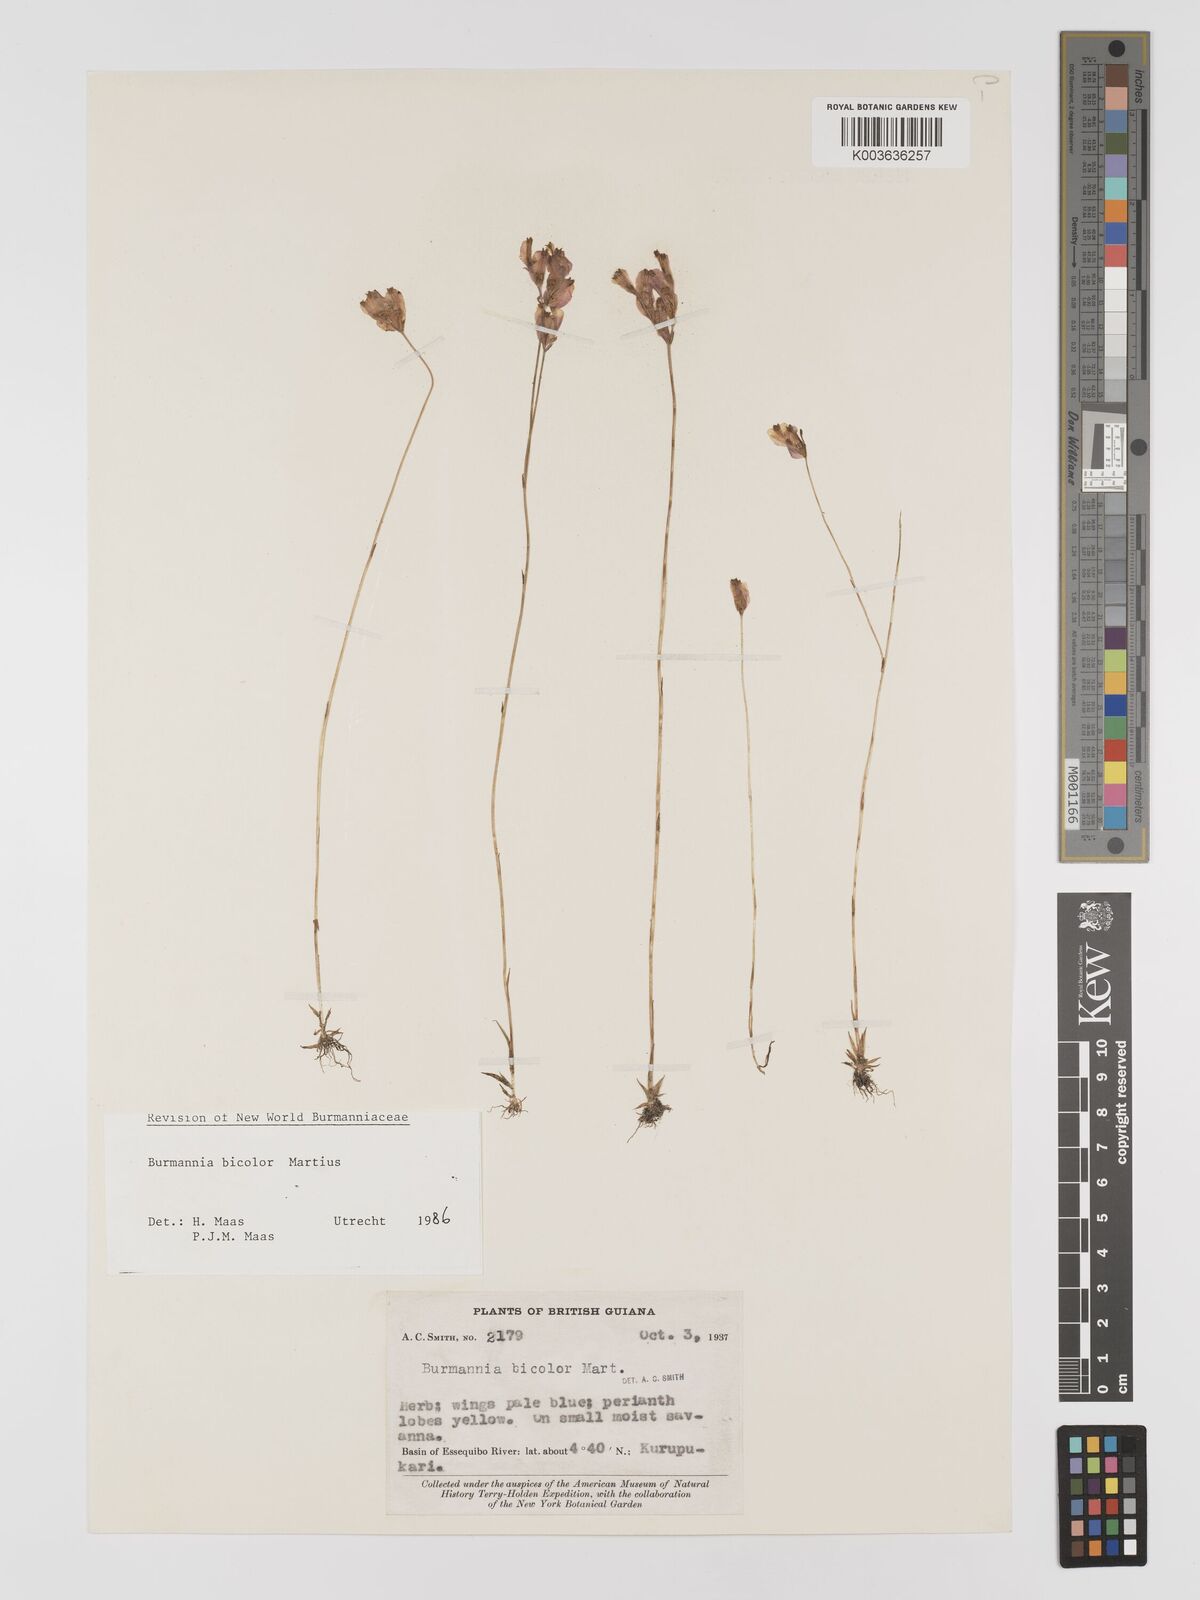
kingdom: Plantae
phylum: Tracheophyta
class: Liliopsida
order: Dioscoreales
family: Burmanniaceae
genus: Burmannia
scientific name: Burmannia bicolor
